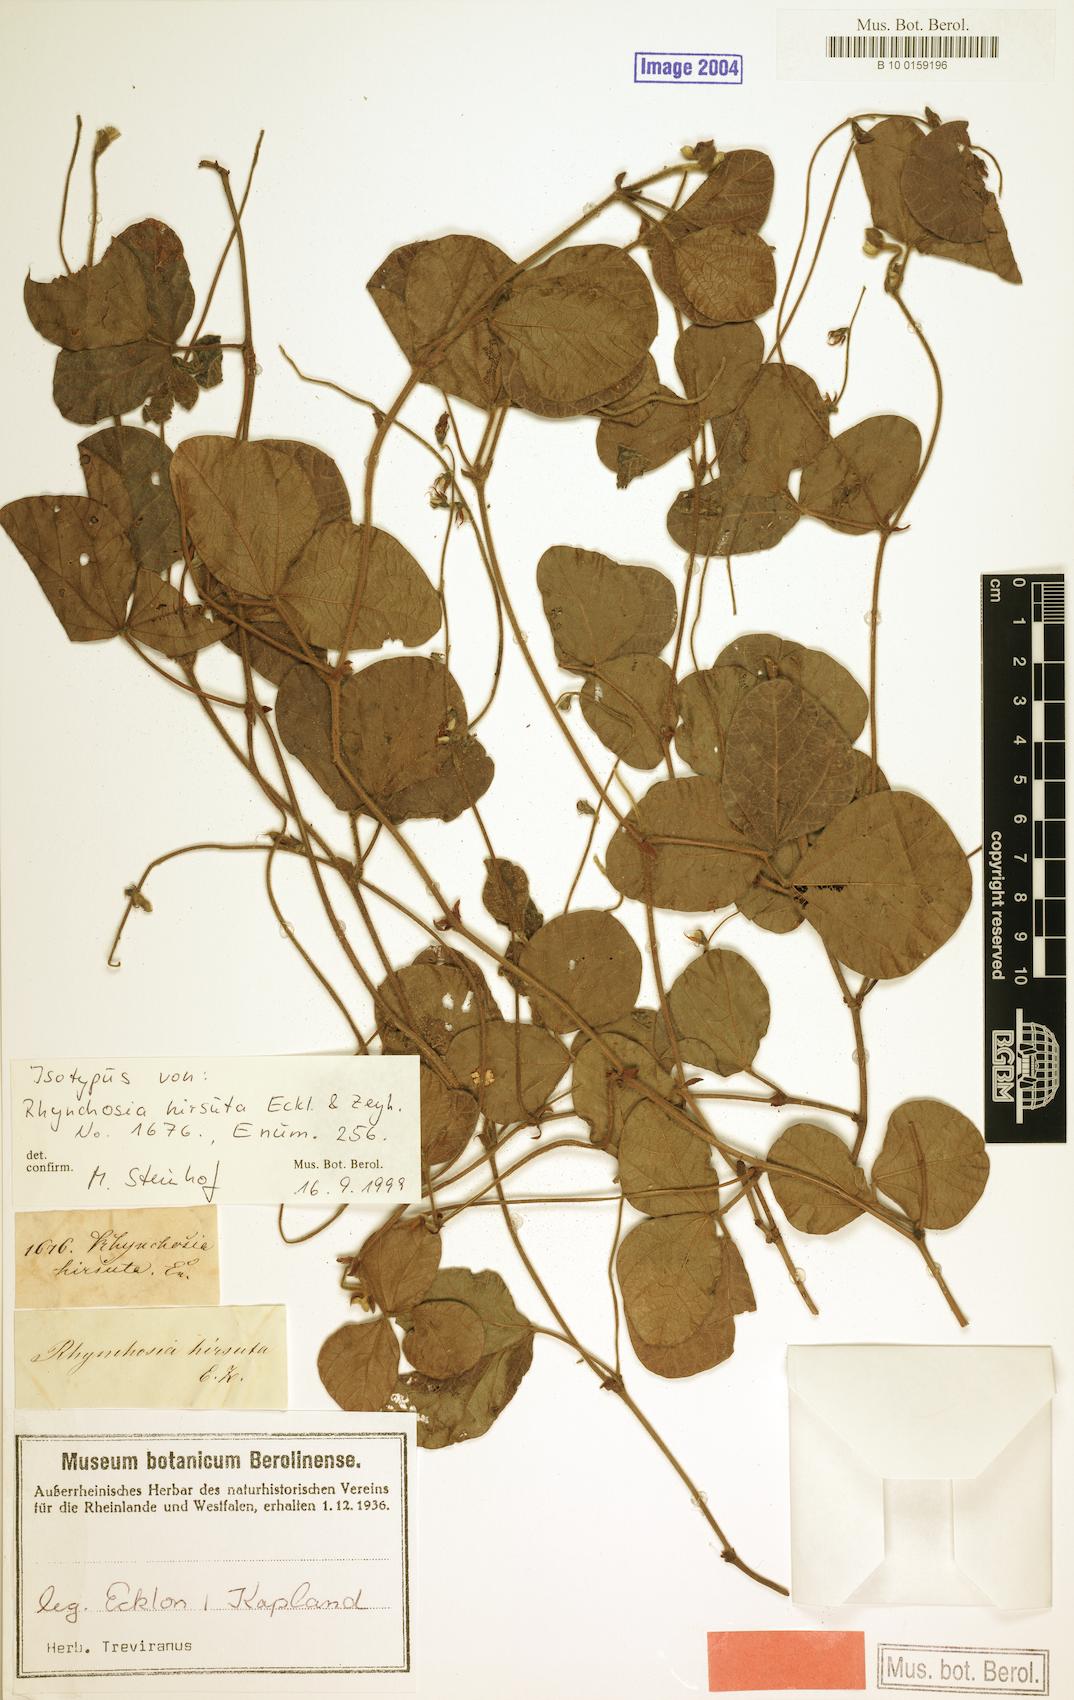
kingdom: Plantae
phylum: Tracheophyta
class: Magnoliopsida
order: Fabales
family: Fabaceae
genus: Rhynchosia
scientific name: Rhynchosia hirsuta
